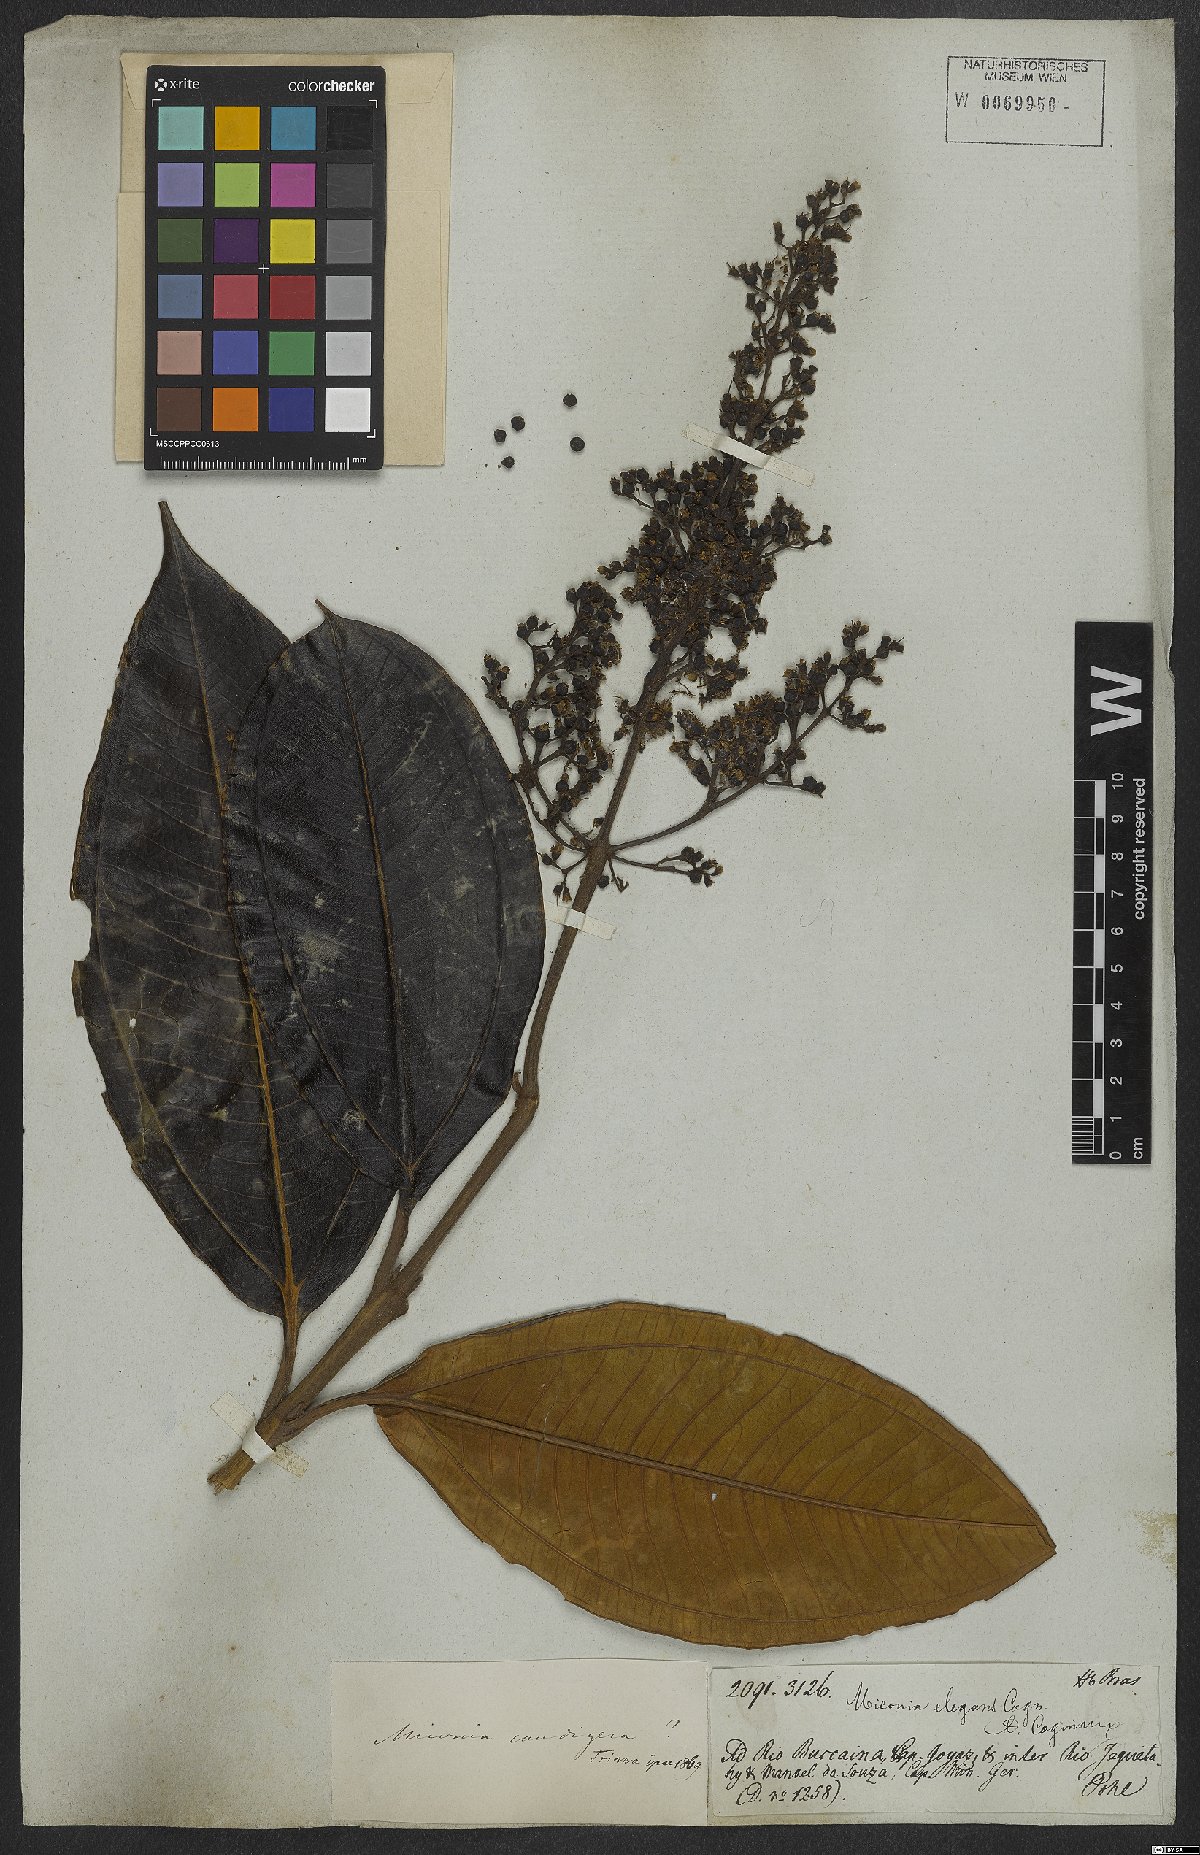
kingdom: Plantae
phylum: Tracheophyta
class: Magnoliopsida
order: Myrtales
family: Melastomataceae
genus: Miconia
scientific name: Miconia elegans
